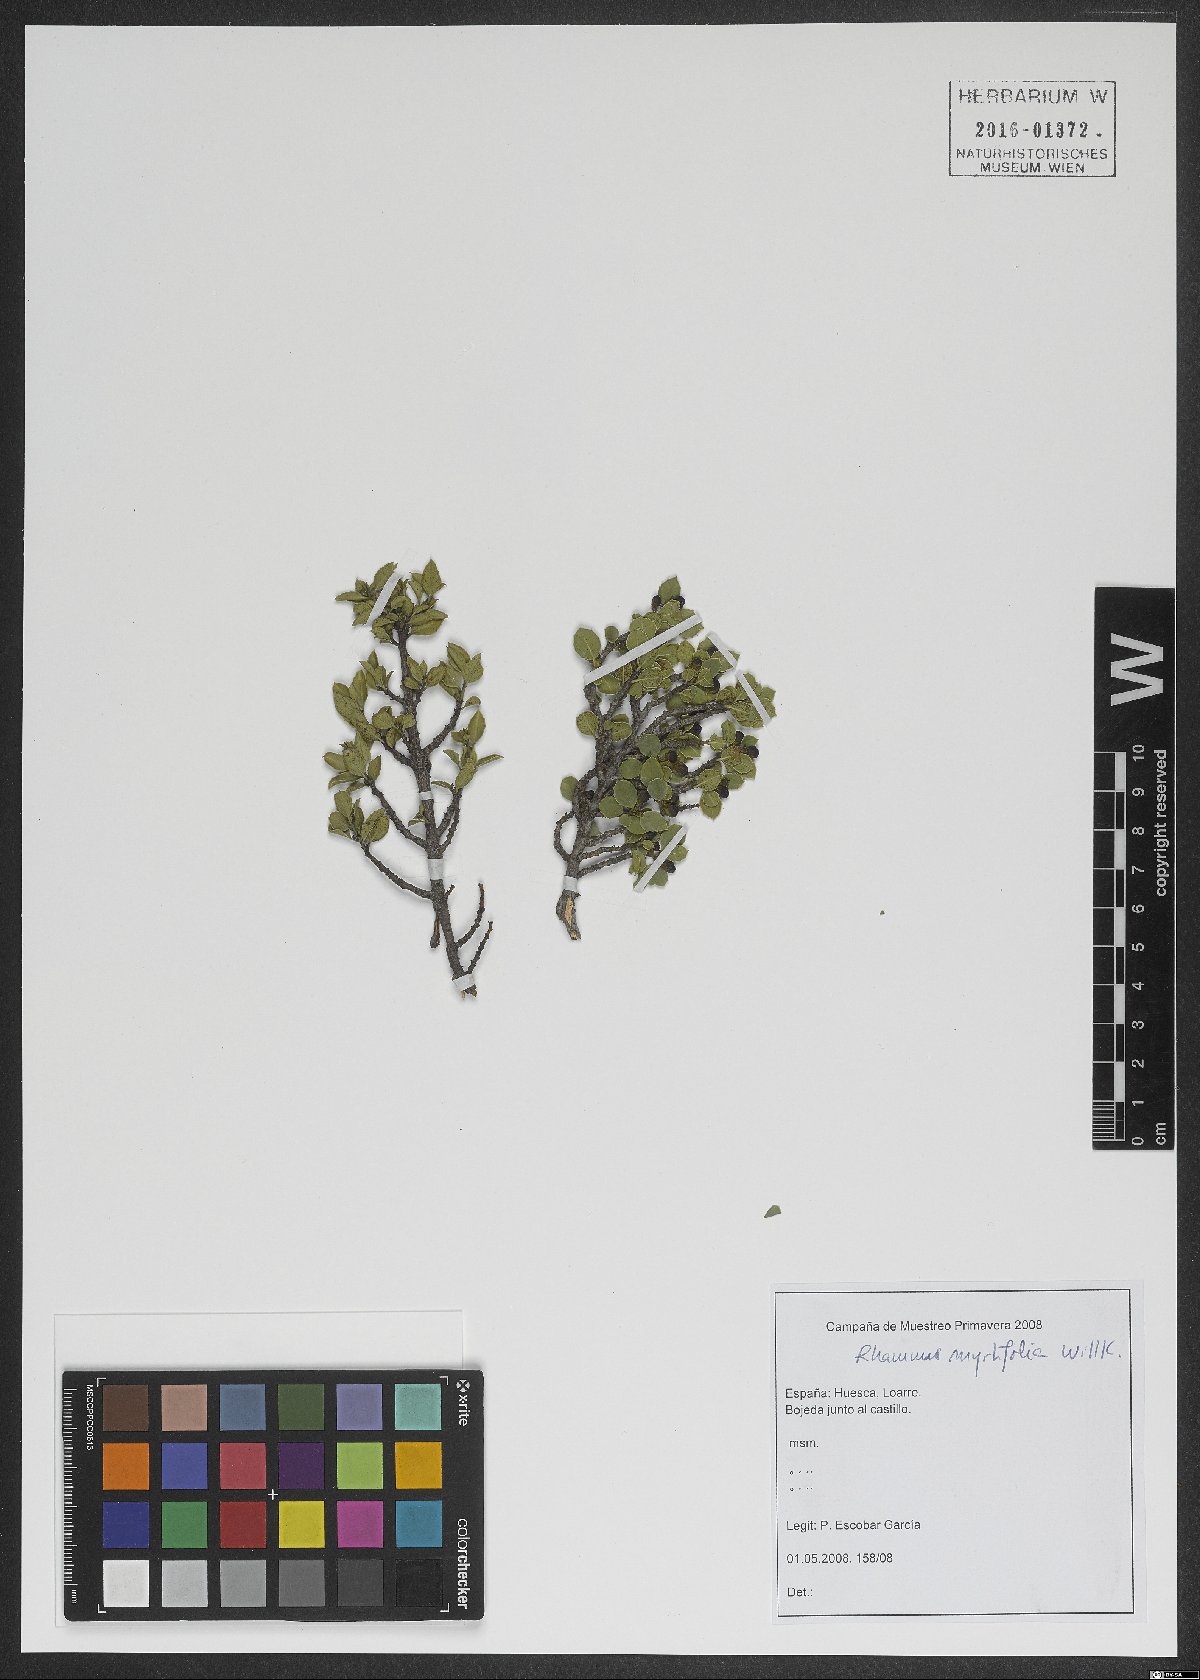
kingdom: Plantae
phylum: Tracheophyta
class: Magnoliopsida
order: Rosales
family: Rhamnaceae
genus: Rhamnus
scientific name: Rhamnus myrtifolia
